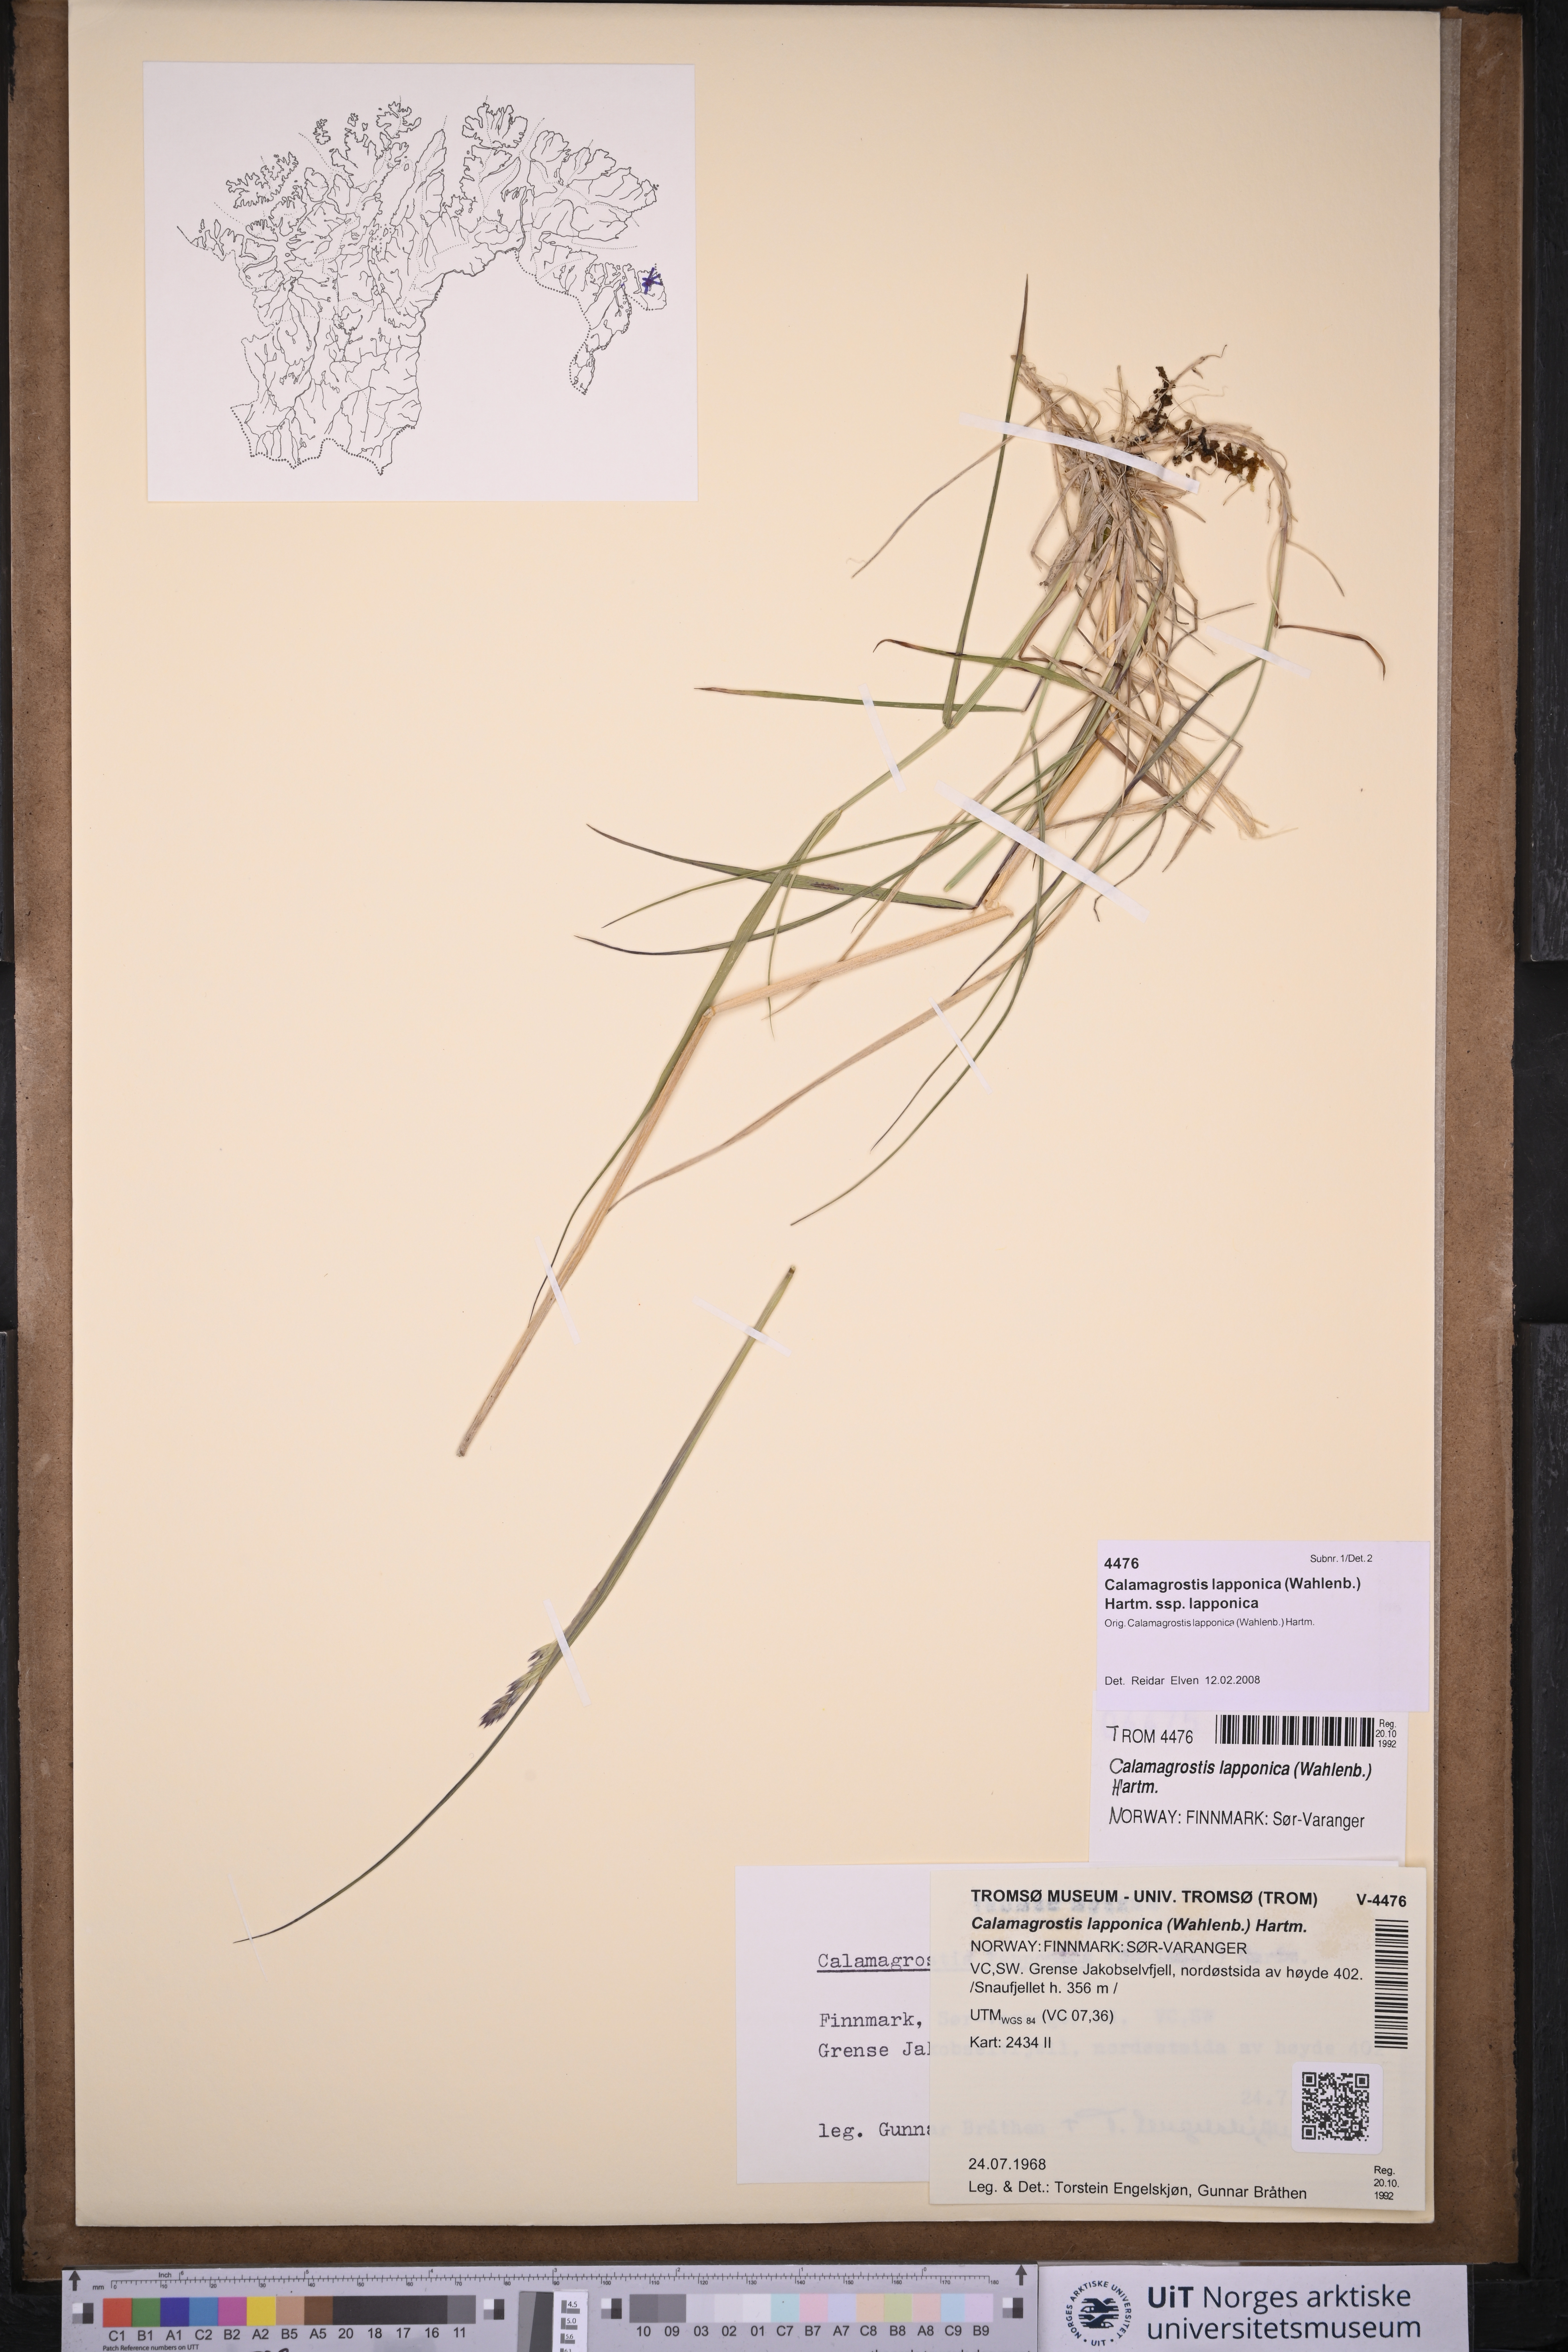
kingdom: Plantae
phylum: Tracheophyta
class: Liliopsida
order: Poales
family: Poaceae
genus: Calamagrostis
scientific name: Calamagrostis lapponica
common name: Lapland reedgrass
